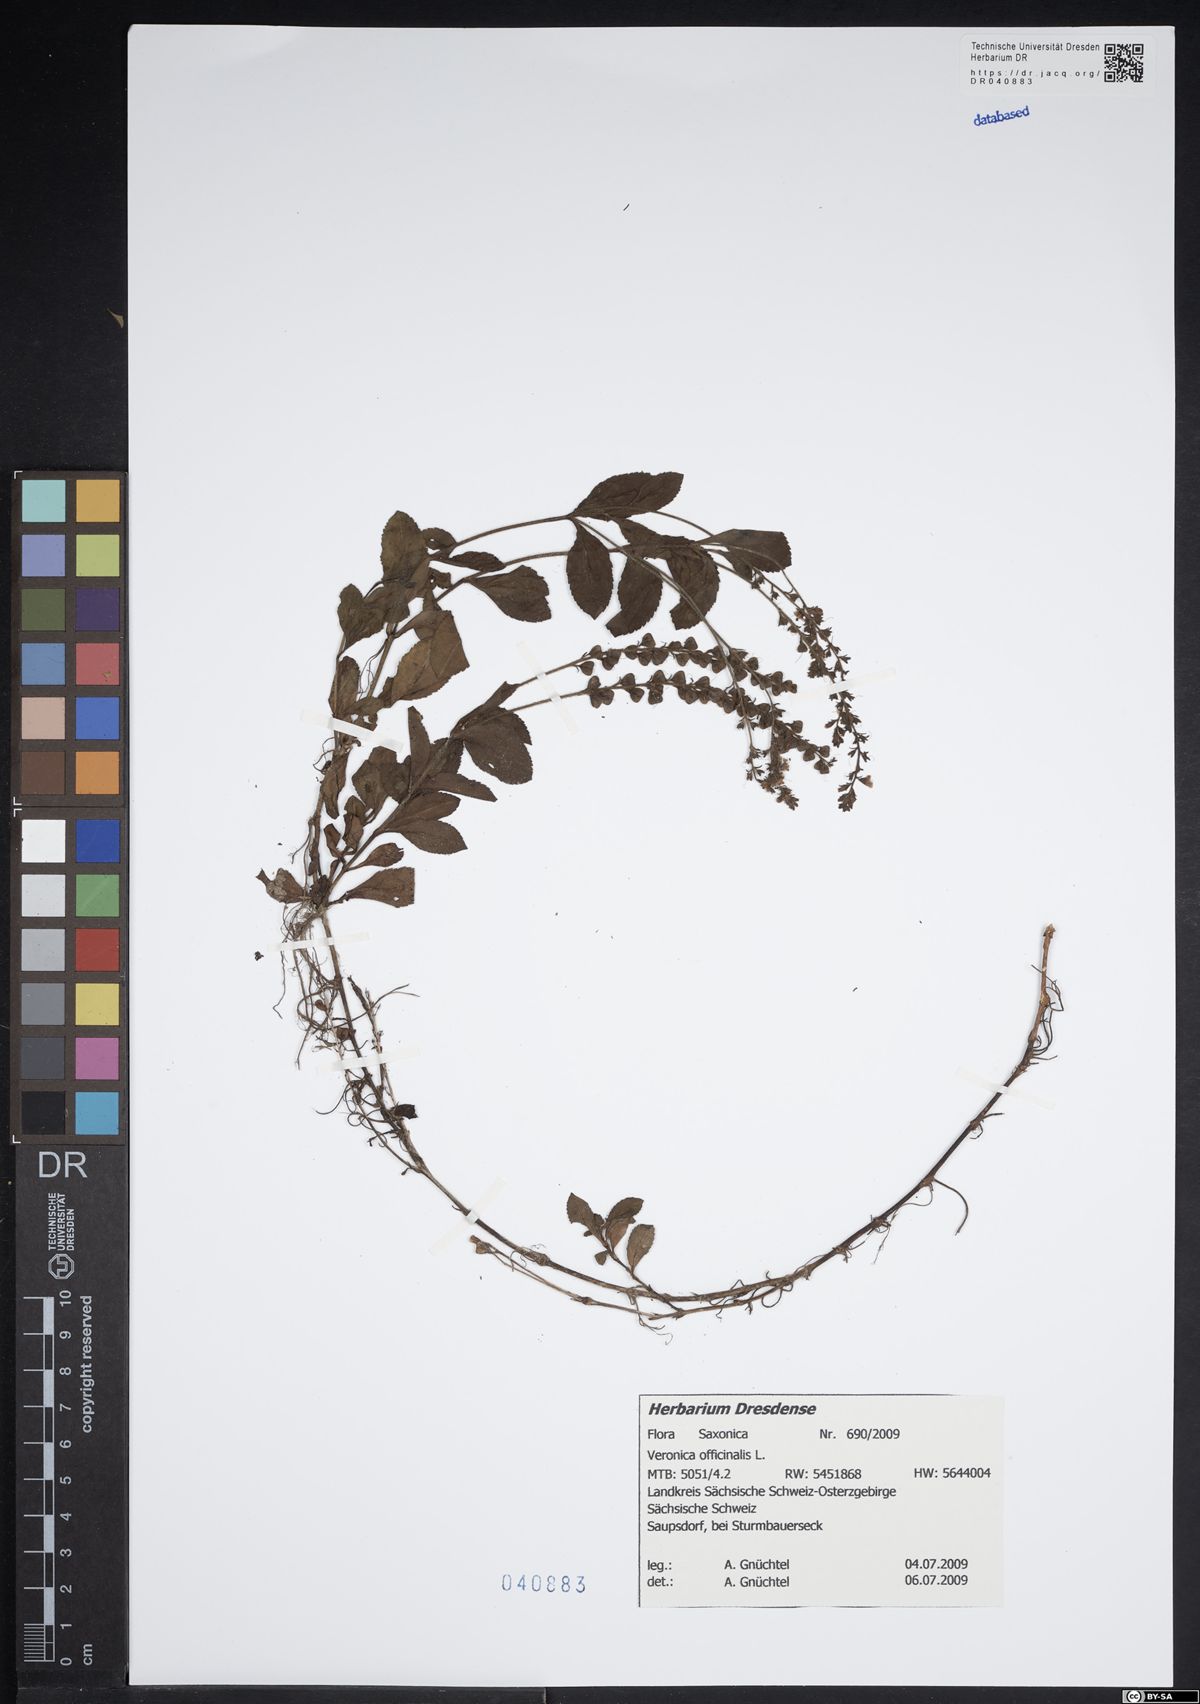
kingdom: Plantae
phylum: Tracheophyta
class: Magnoliopsida
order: Lamiales
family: Plantaginaceae
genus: Veronica
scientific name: Veronica officinalis
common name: Common speedwell
